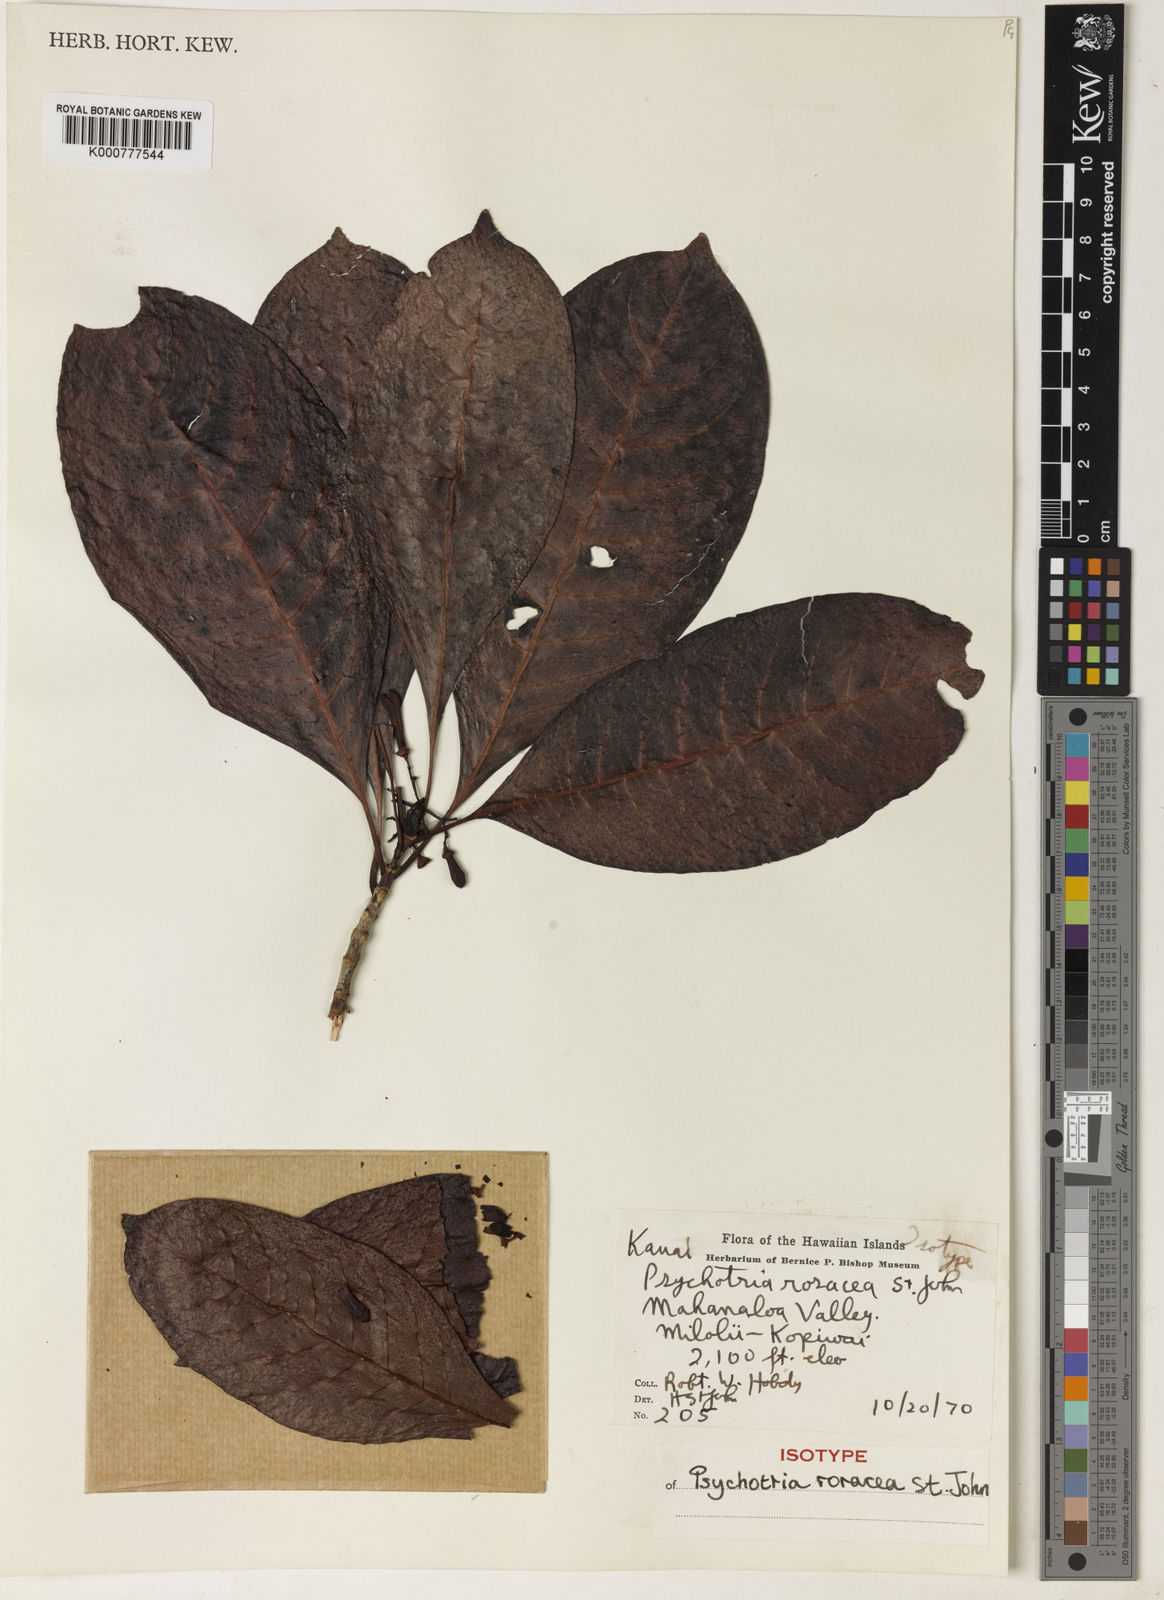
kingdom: Plantae
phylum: Tracheophyta
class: Magnoliopsida
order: Gentianales
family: Rubiaceae
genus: Psychotria
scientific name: Psychotria hobdyi
